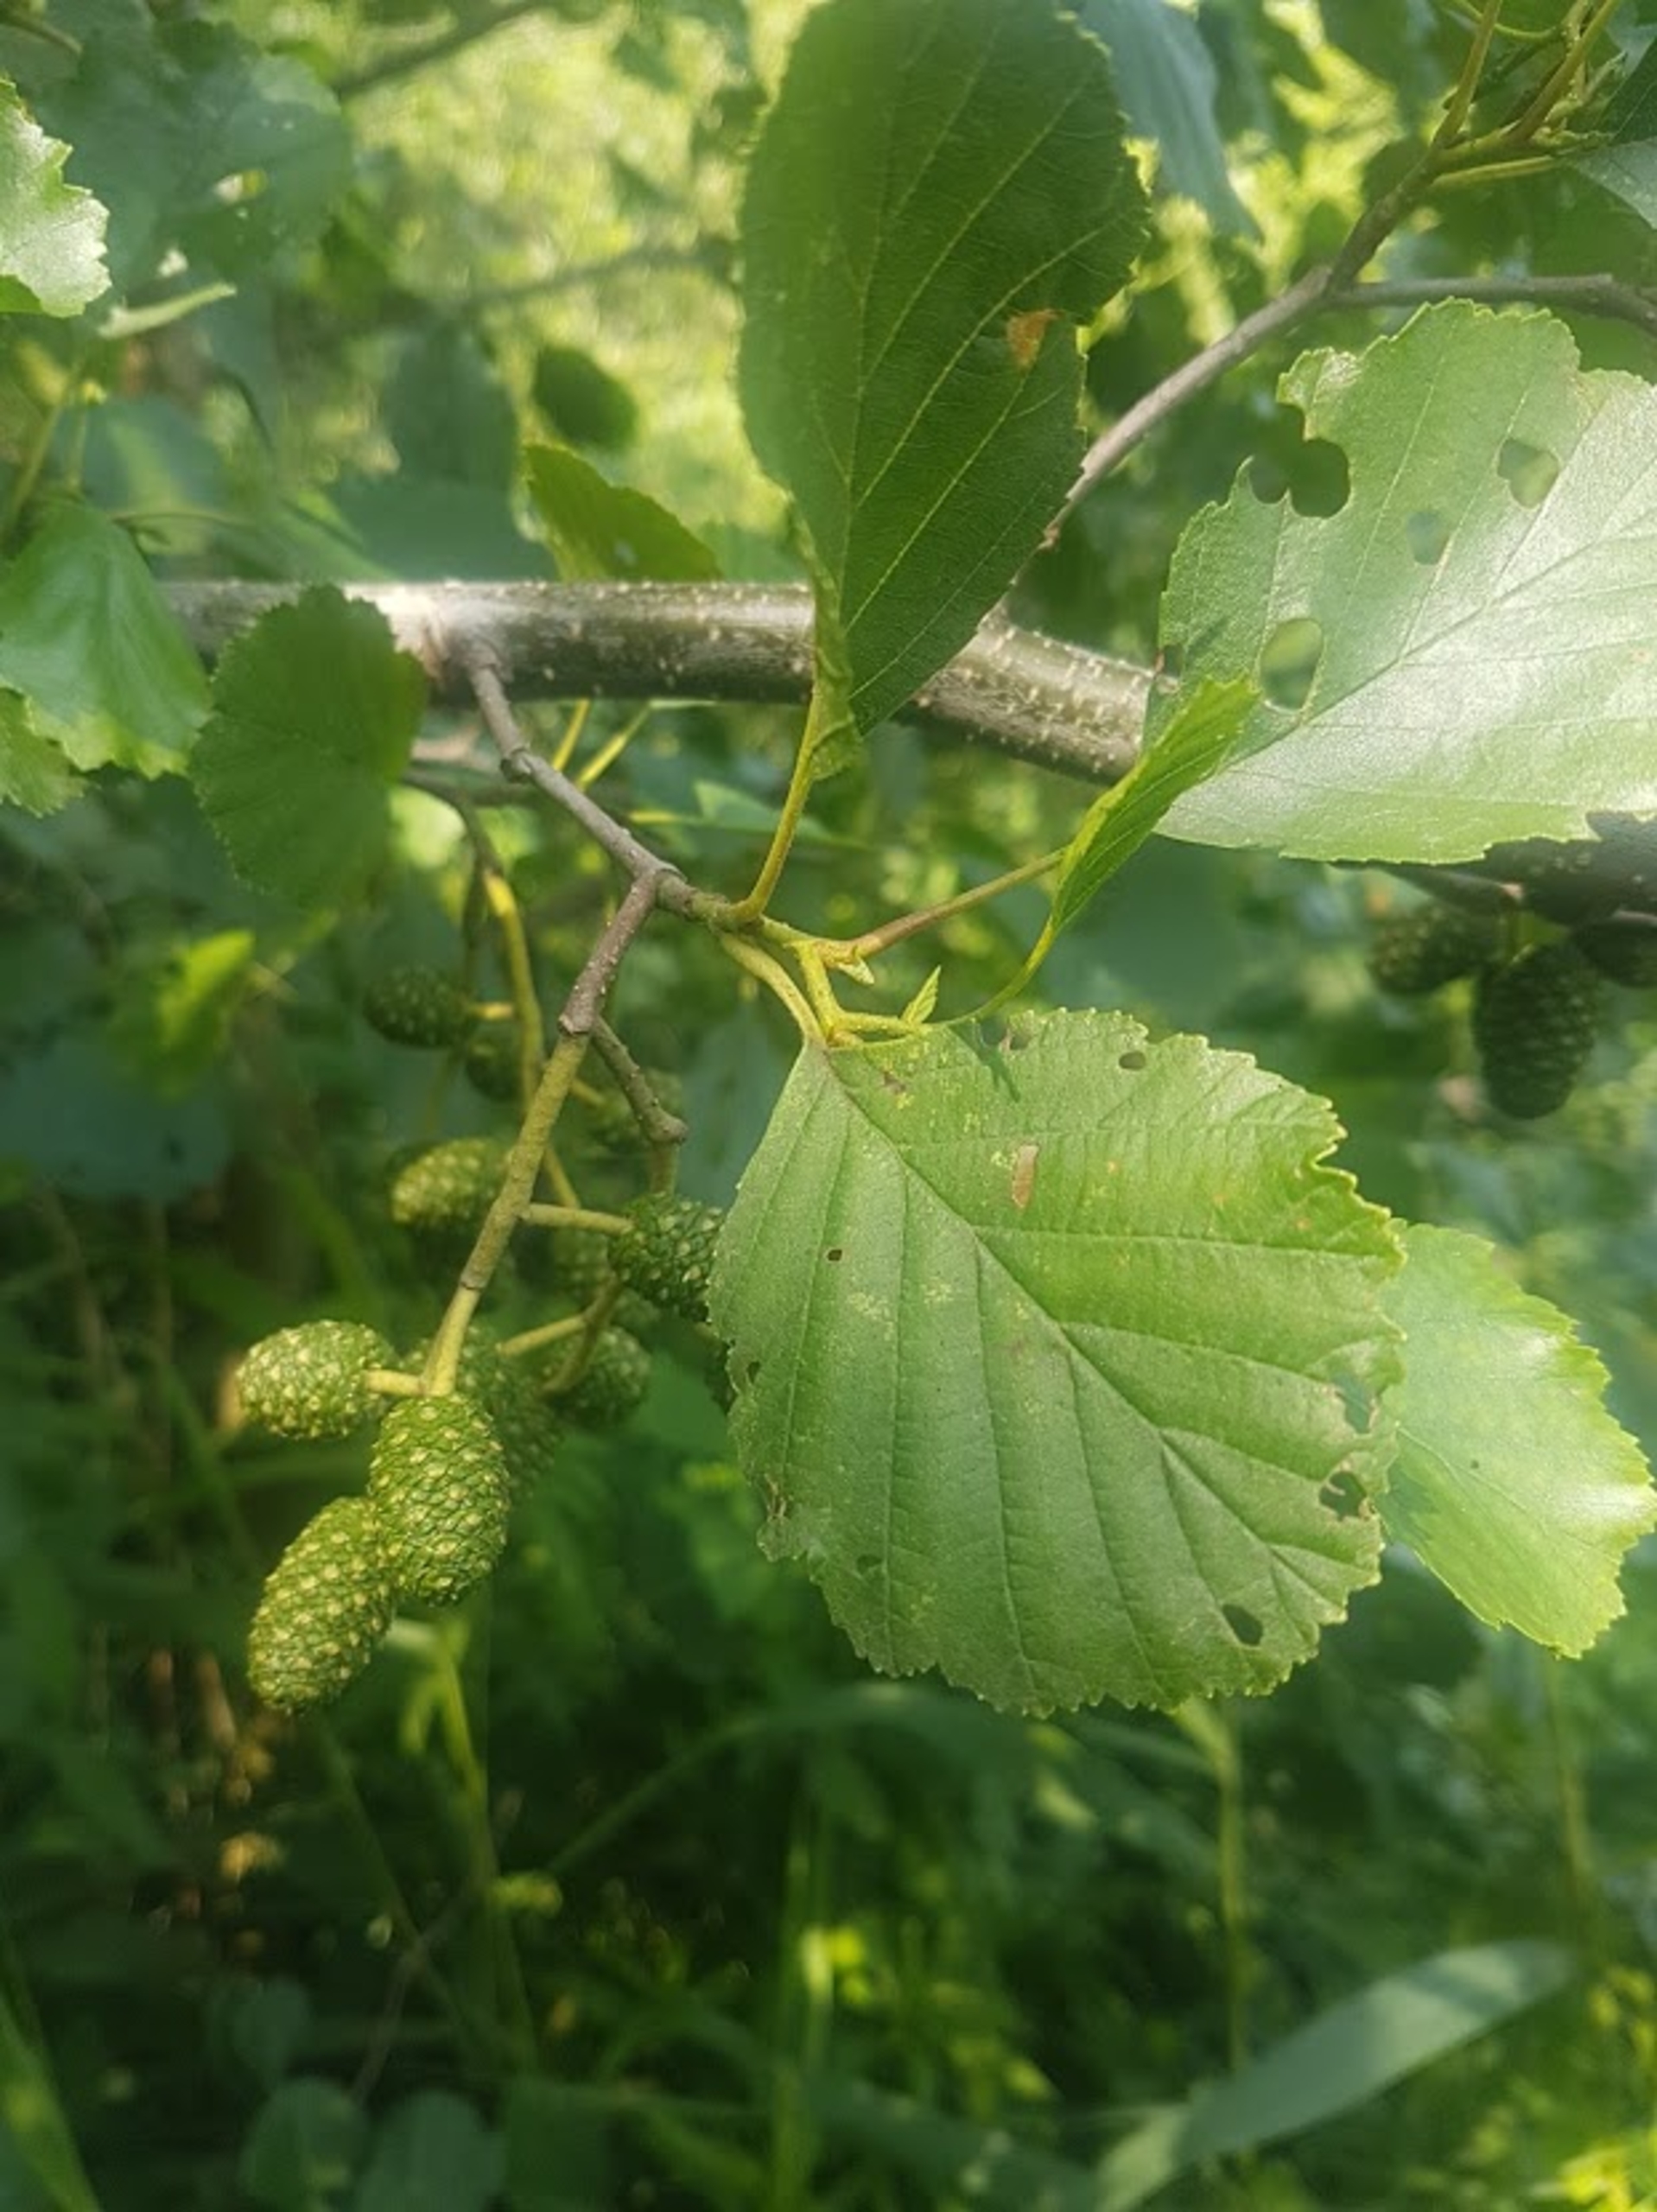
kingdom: Plantae
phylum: Tracheophyta
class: Magnoliopsida
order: Fagales
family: Betulaceae
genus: Alnus
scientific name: Alnus glutinosa
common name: Rød-el
